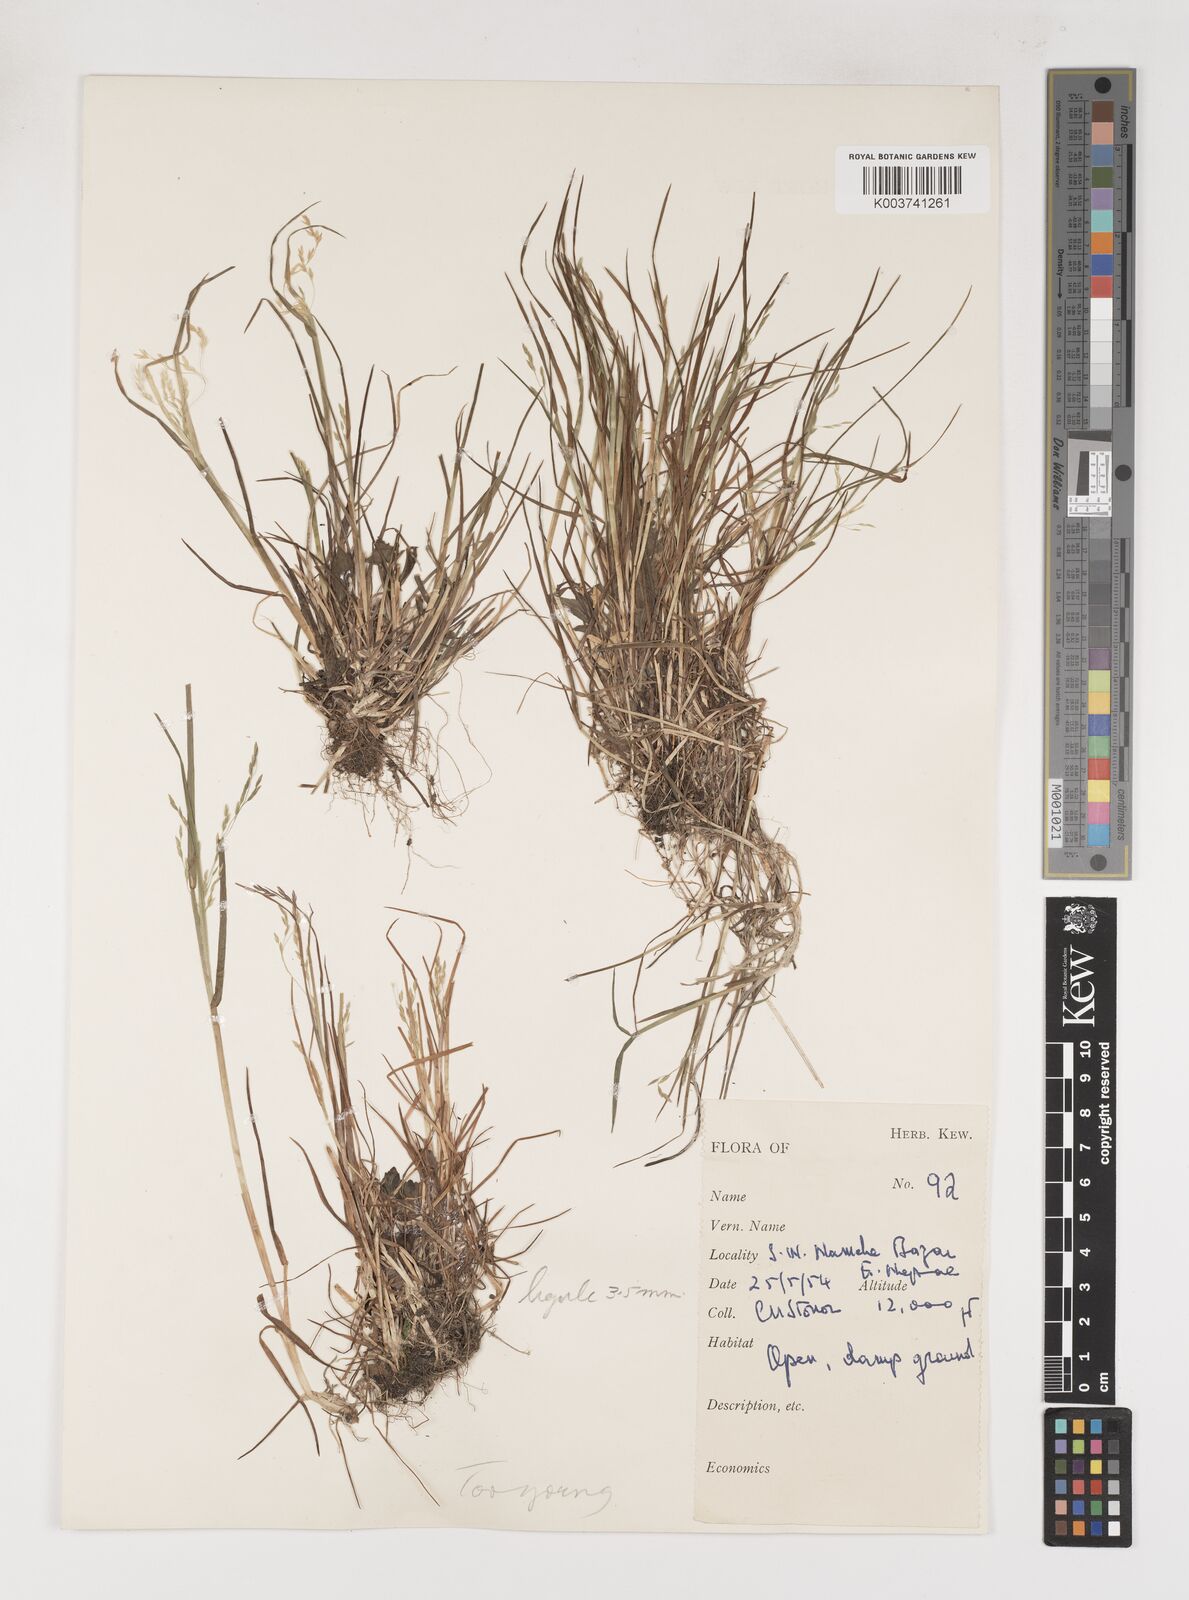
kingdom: Plantae
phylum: Tracheophyta
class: Liliopsida
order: Poales
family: Poaceae
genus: Poa
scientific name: Poa
